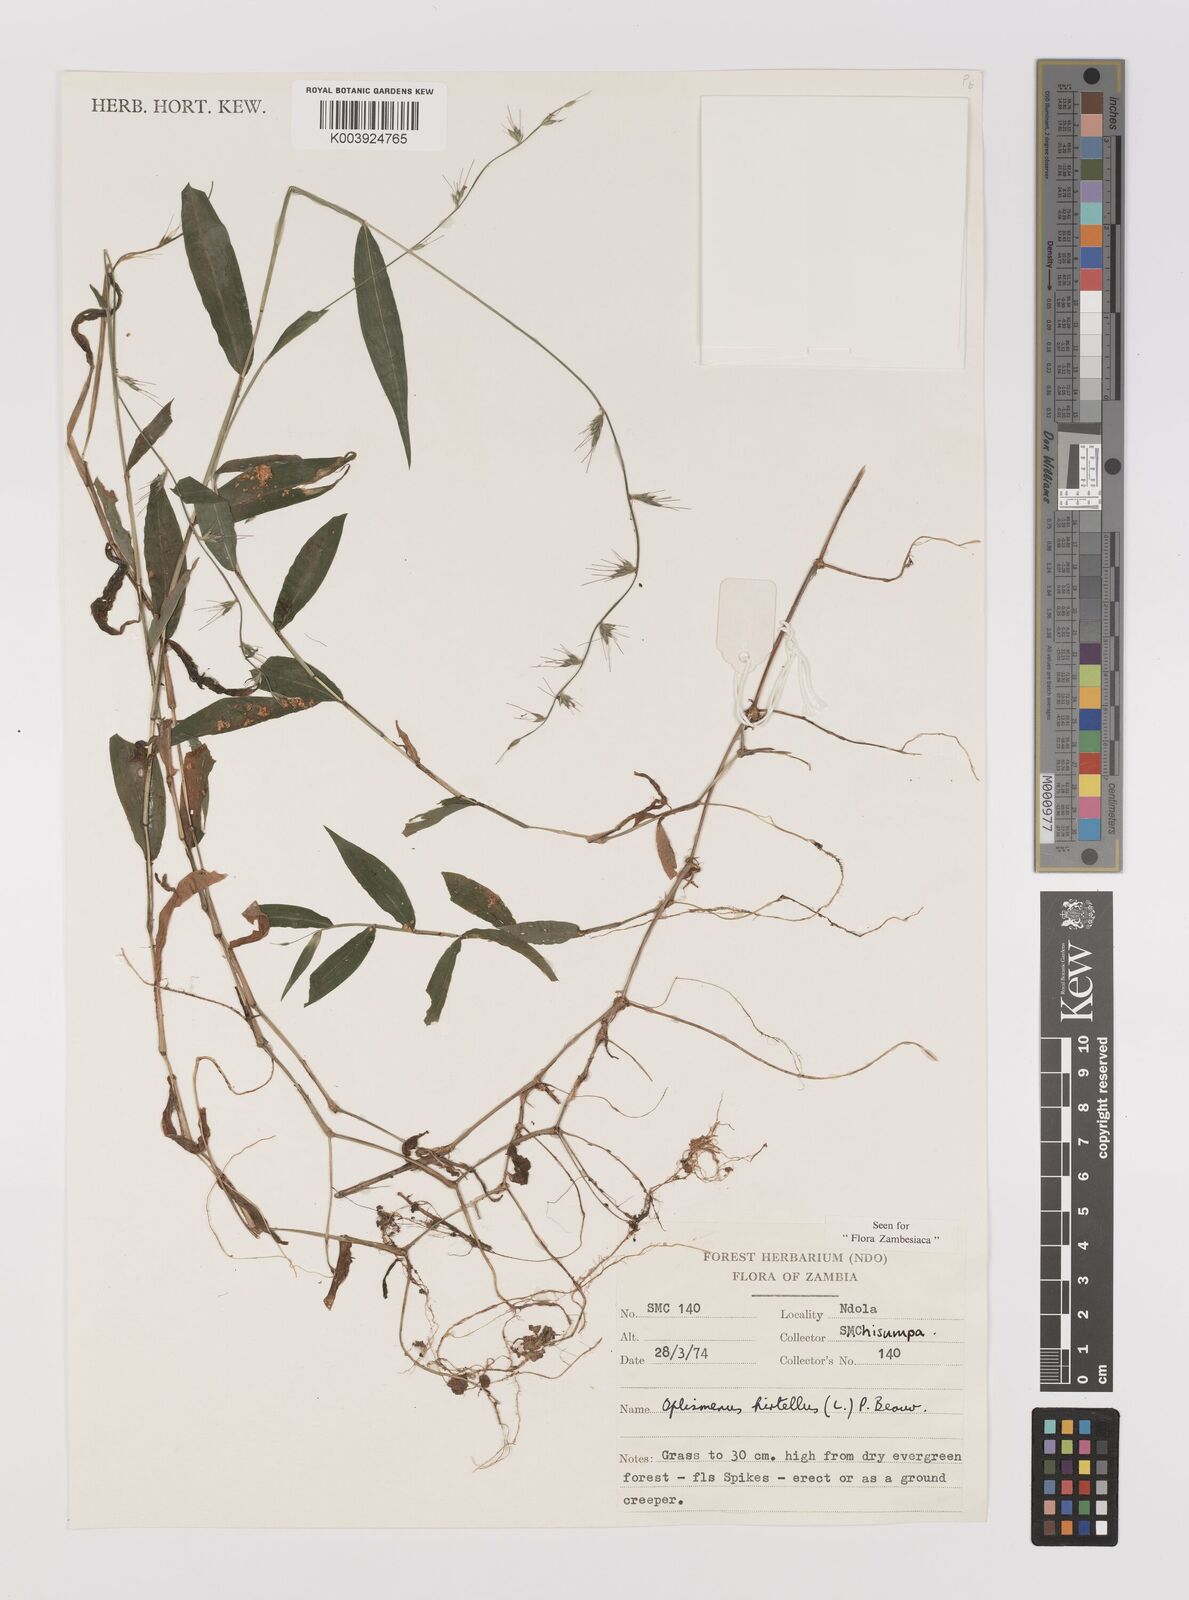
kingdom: Plantae
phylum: Tracheophyta
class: Liliopsida
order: Poales
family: Poaceae
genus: Oplismenus
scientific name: Oplismenus hirtellus
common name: Basketgrass
